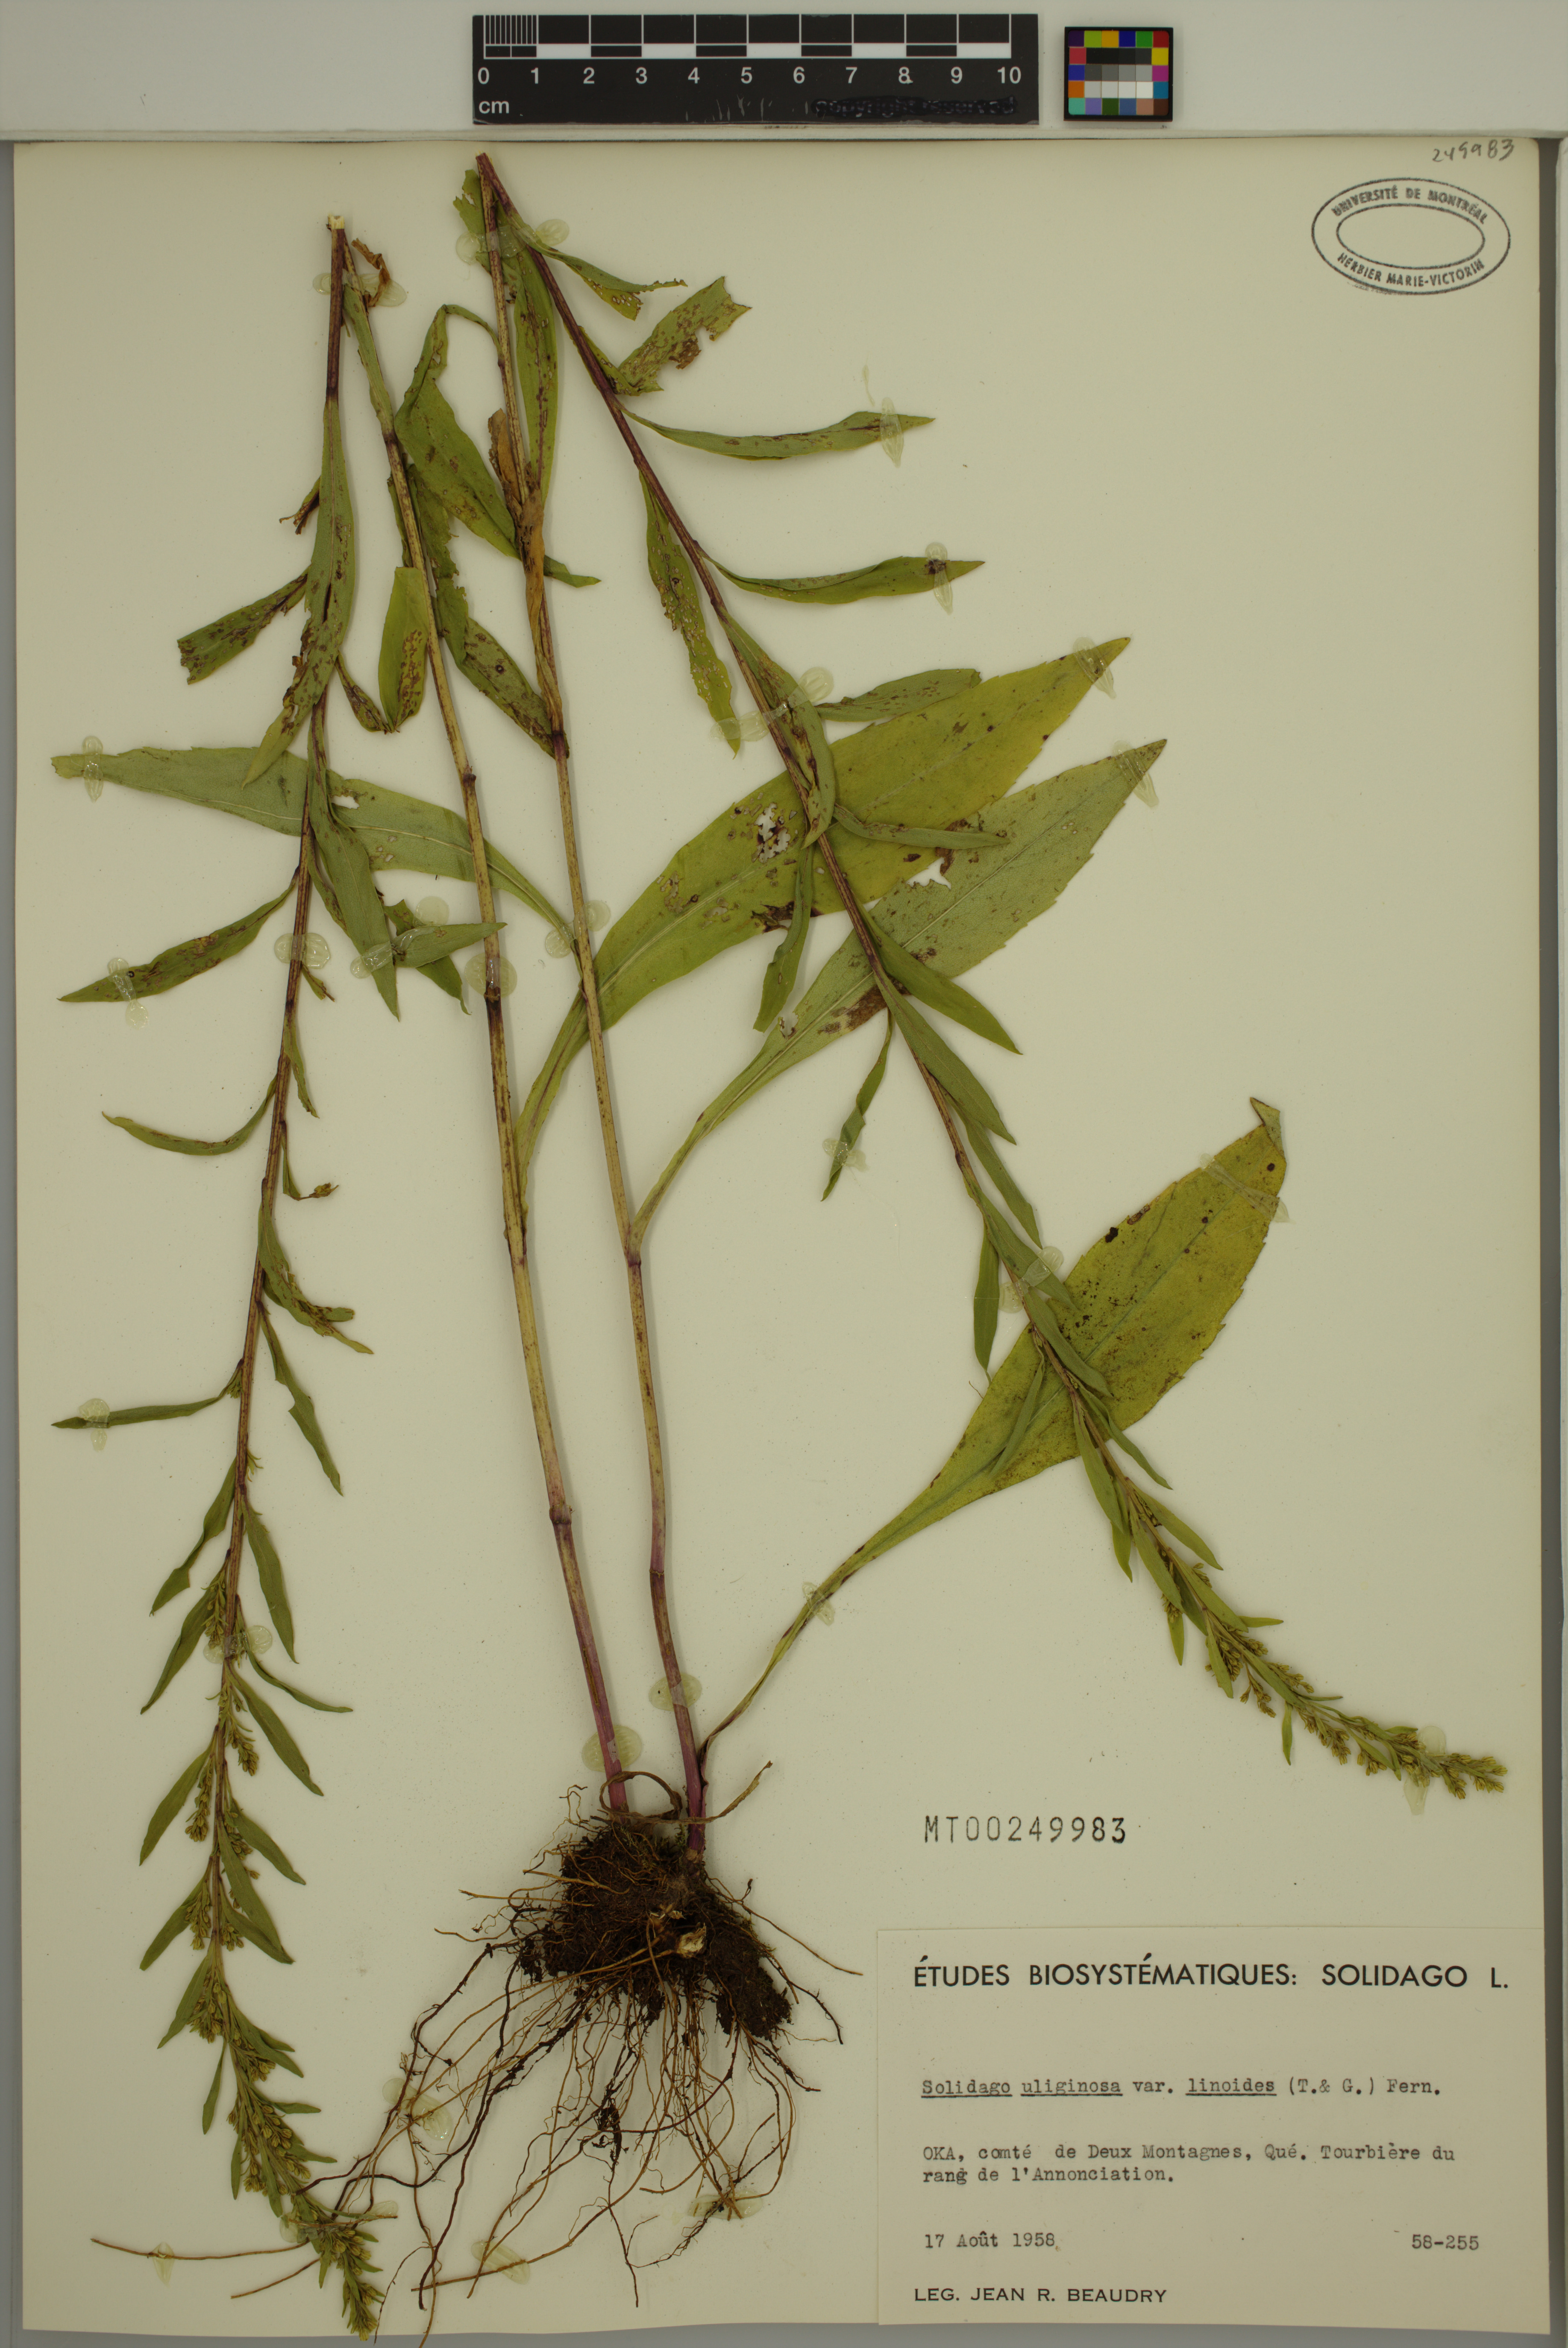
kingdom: Plantae
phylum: Tracheophyta
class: Magnoliopsida
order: Asterales
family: Asteraceae
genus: Solidago
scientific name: Solidago uliginosa
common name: Bog goldenrod
